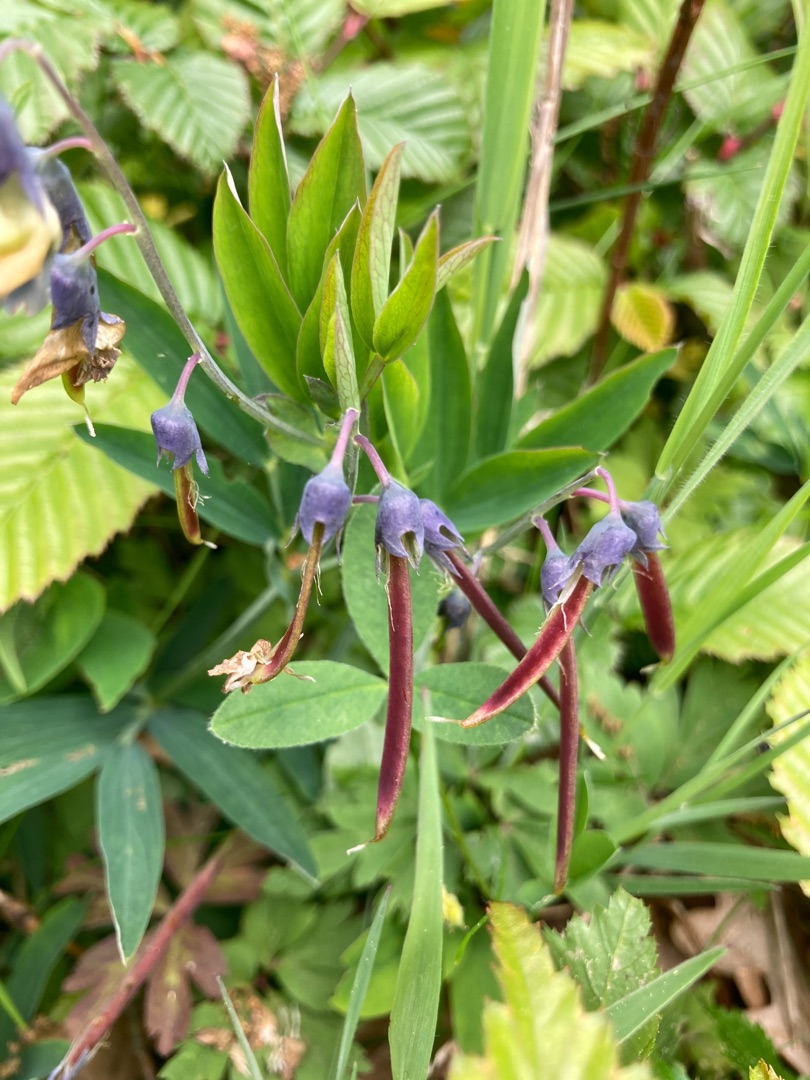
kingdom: Plantae
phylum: Tracheophyta
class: Magnoliopsida
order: Fabales
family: Fabaceae
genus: Lathyrus
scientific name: Lathyrus linifolius
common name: Krat-fladbælg
